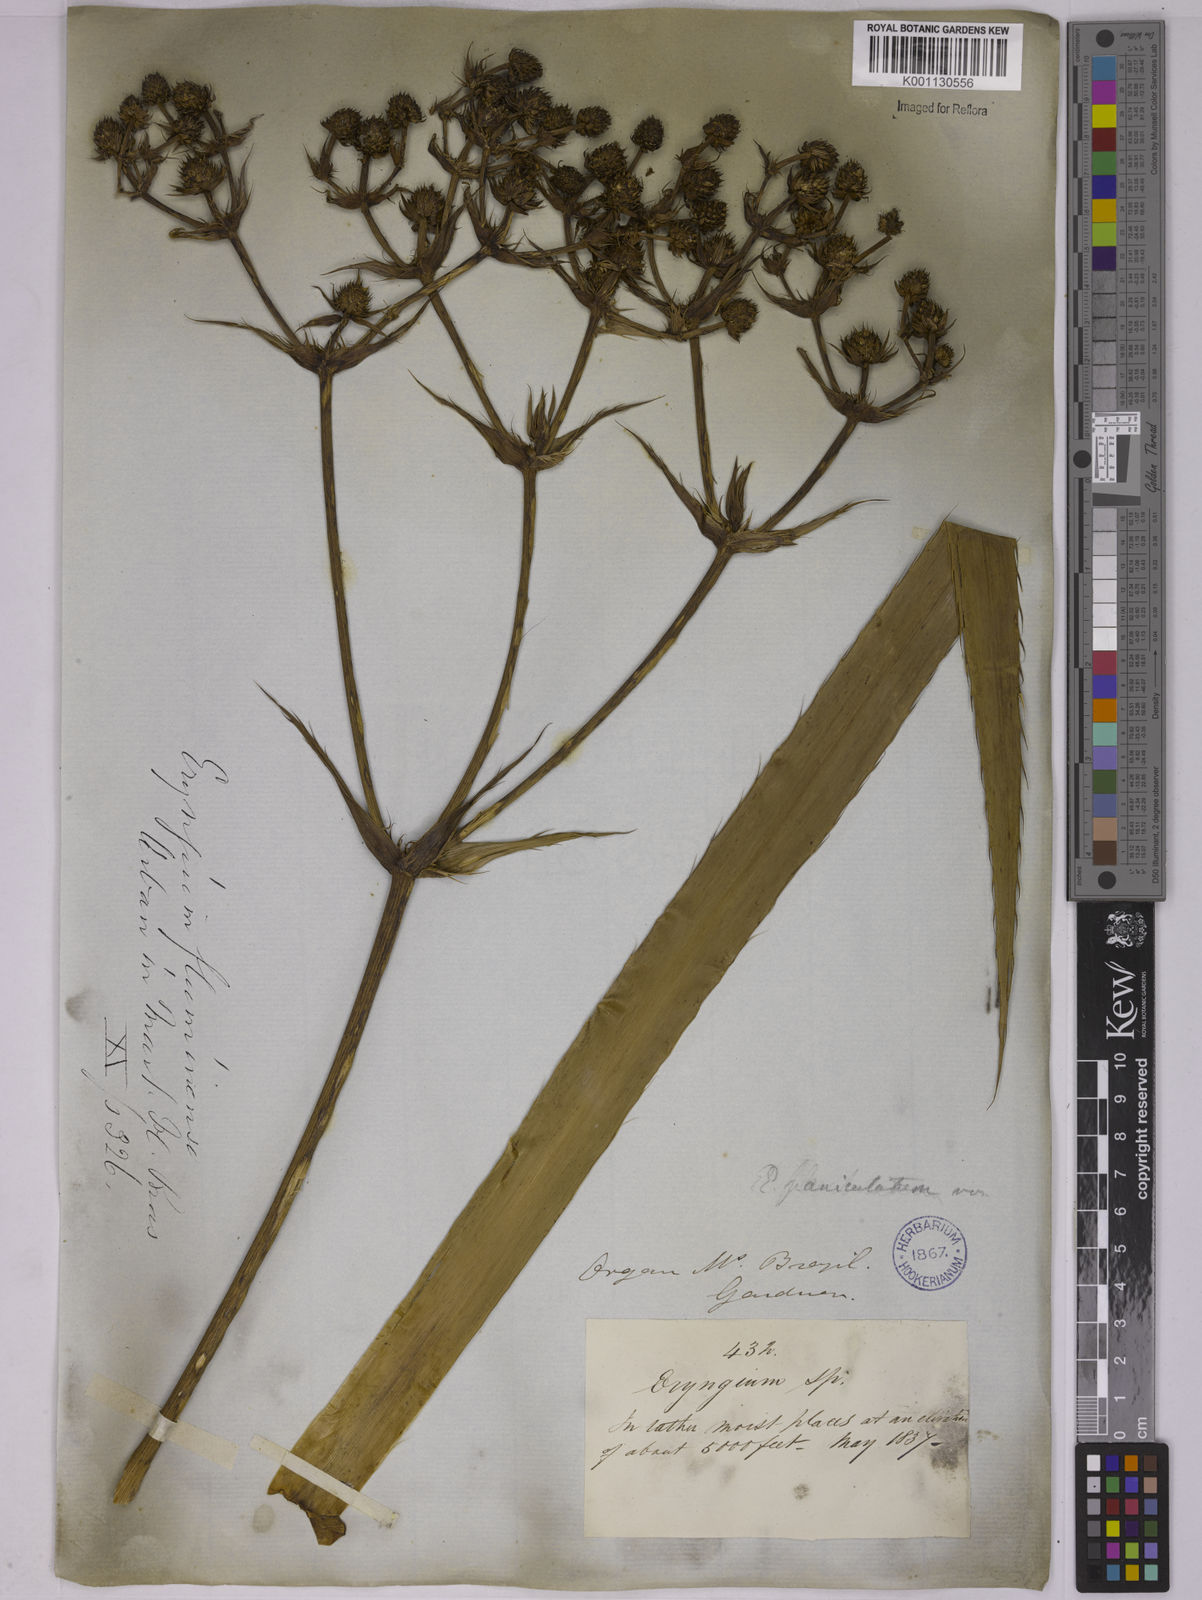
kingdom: Plantae
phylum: Tracheophyta
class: Magnoliopsida
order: Apiales
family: Apiaceae
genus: Eryngium
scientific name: Eryngium fluminense
